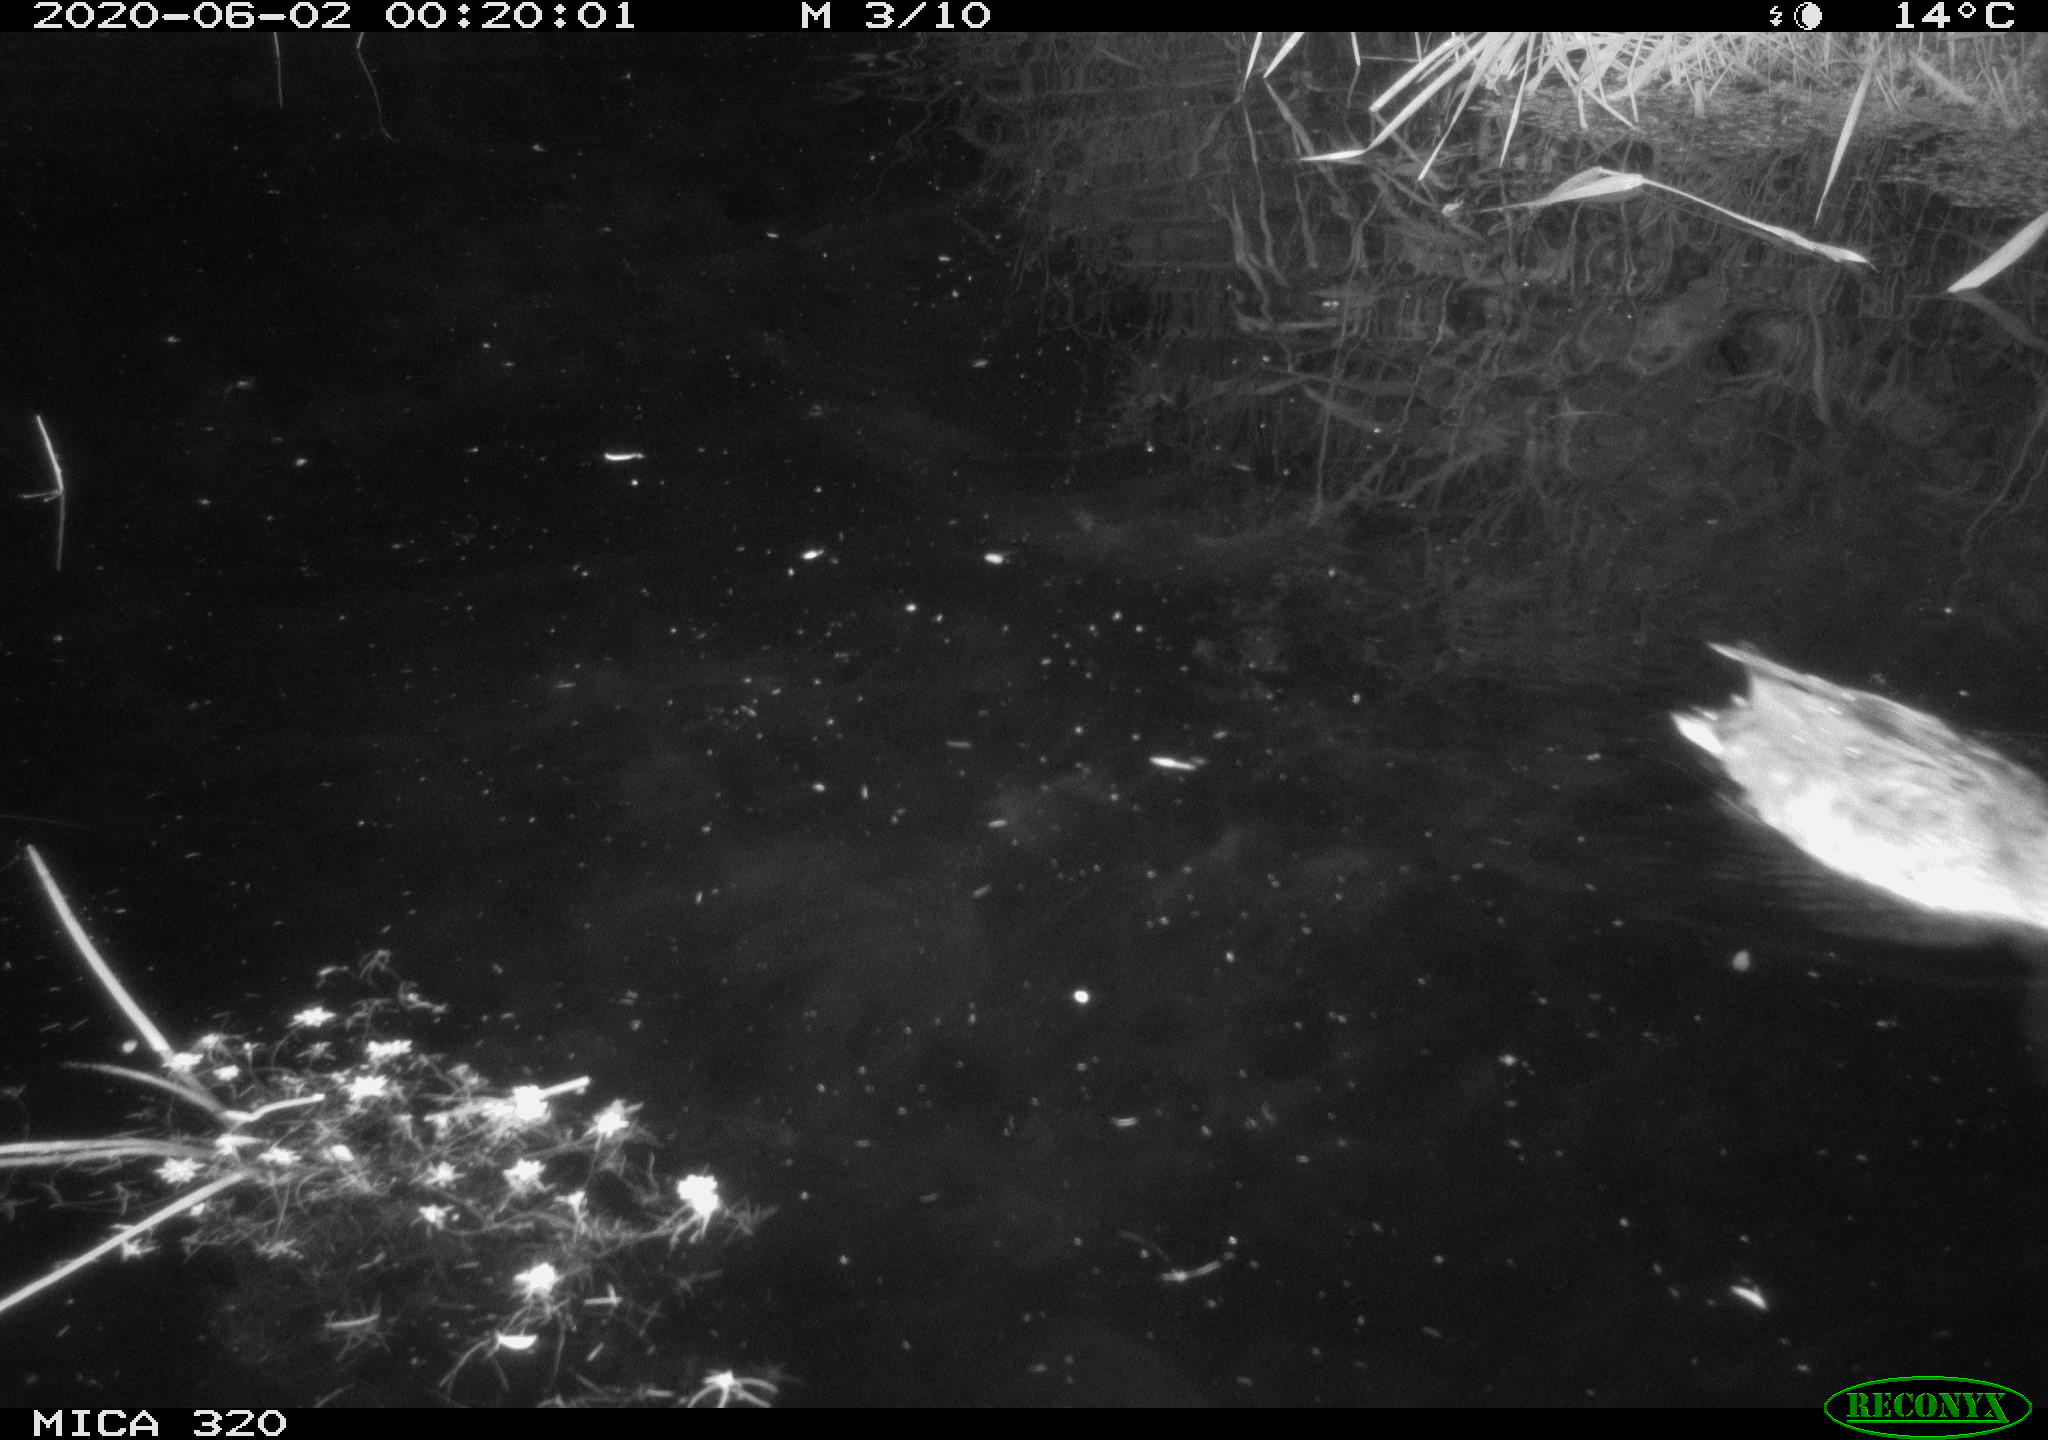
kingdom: Animalia
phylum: Chordata
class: Aves
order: Anseriformes
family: Anatidae
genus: Anas
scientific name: Anas platyrhynchos
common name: Mallard
